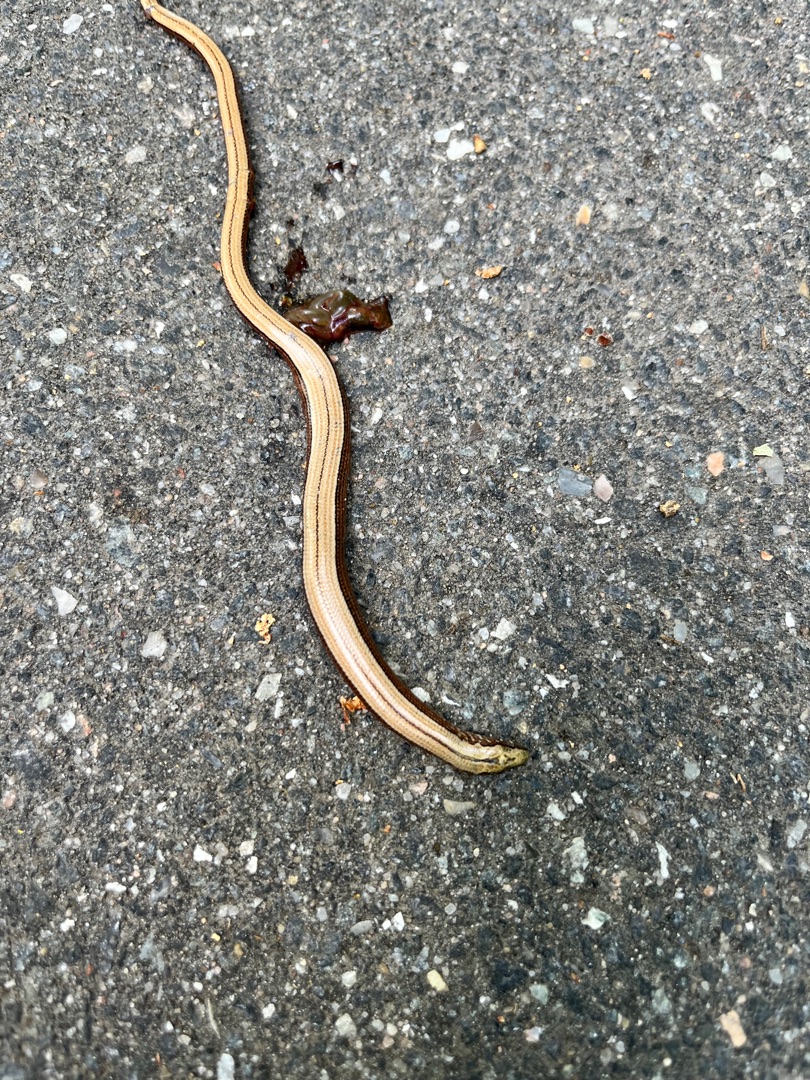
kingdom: Animalia
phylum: Chordata
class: Squamata
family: Anguidae
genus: Anguis
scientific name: Anguis fragilis
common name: Stålorm
